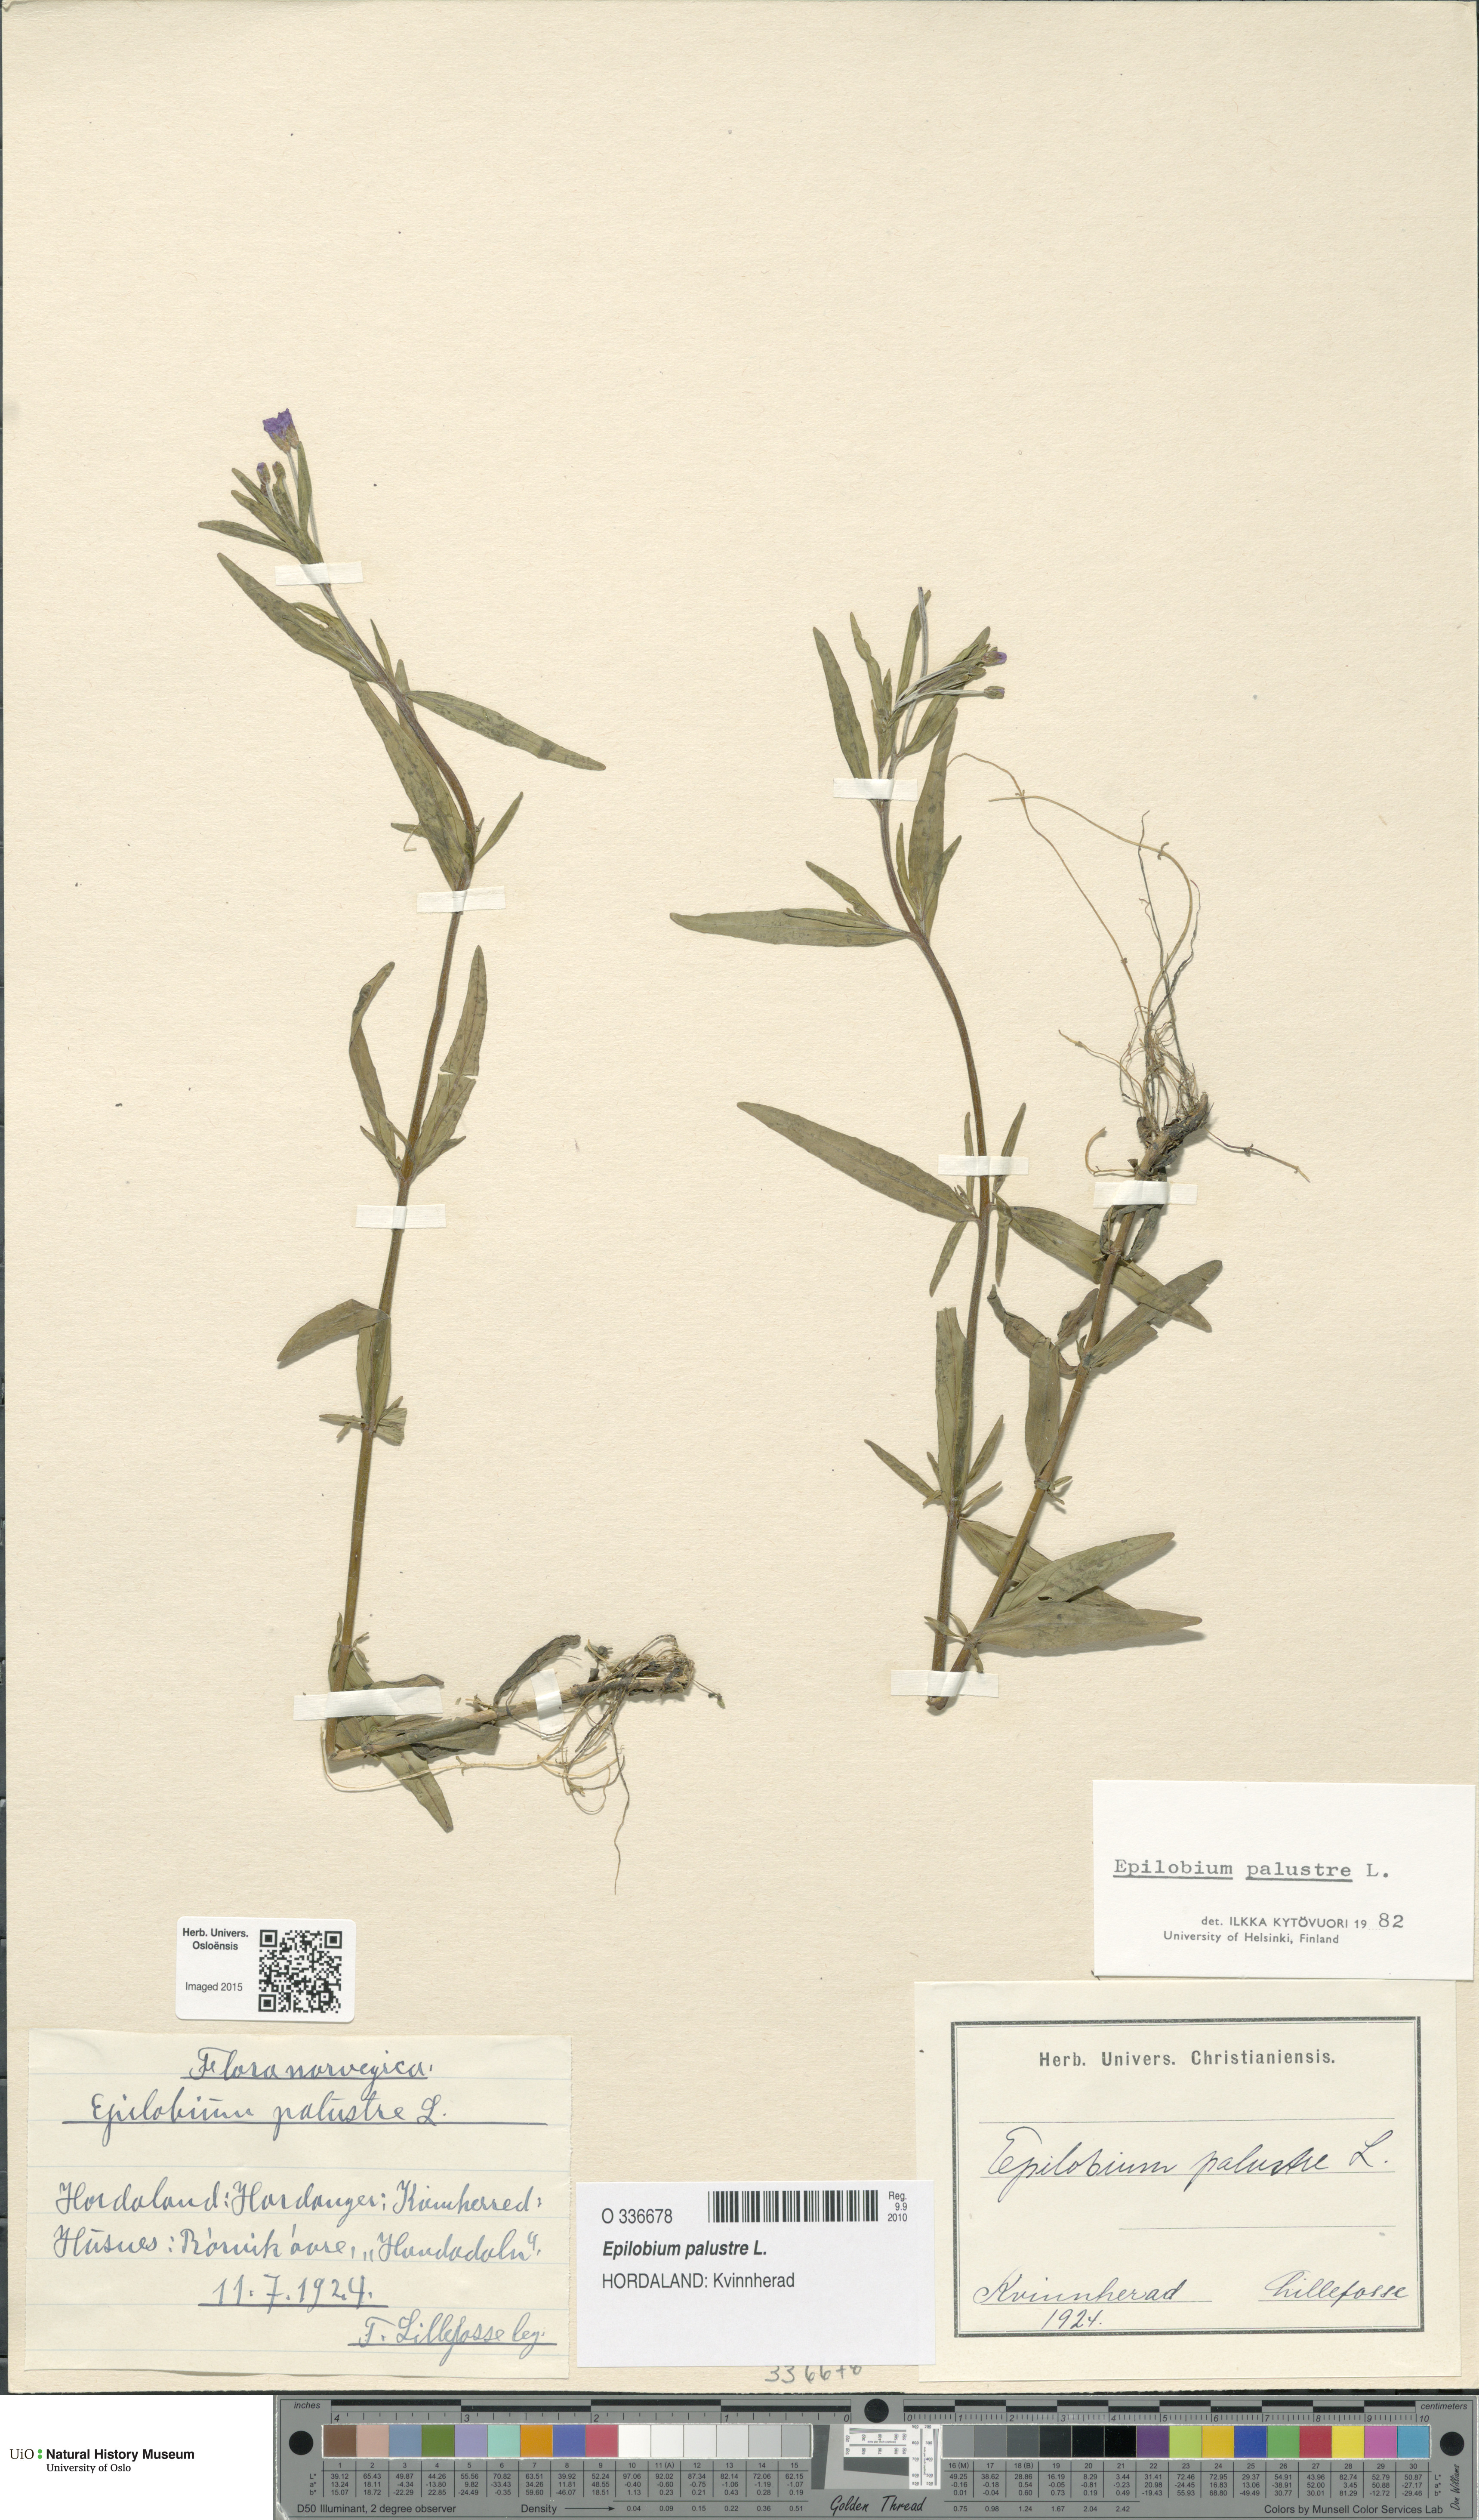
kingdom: Plantae
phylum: Tracheophyta
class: Magnoliopsida
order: Myrtales
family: Onagraceae
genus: Epilobium
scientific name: Epilobium palustre
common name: Marsh willowherb
